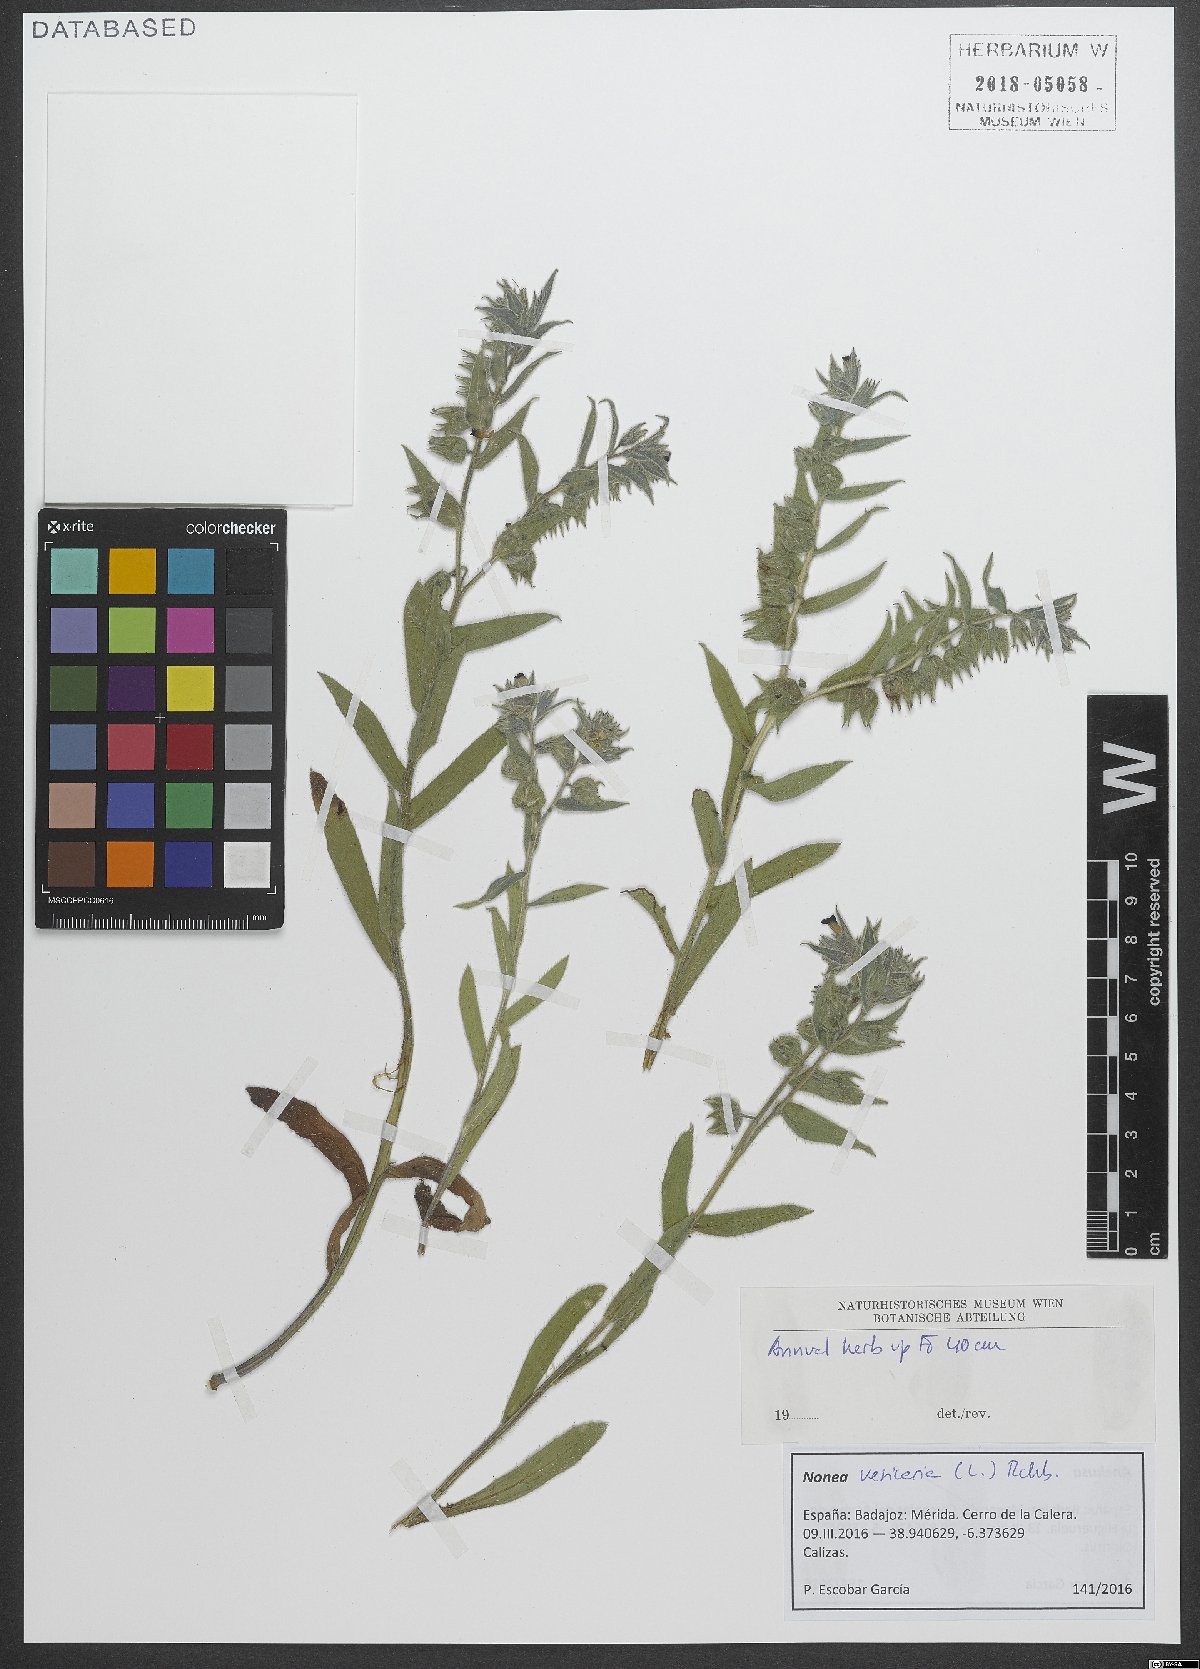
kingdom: Plantae
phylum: Tracheophyta
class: Magnoliopsida
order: Boraginales
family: Boraginaceae
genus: Nonea
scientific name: Nonea vesicaria
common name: Red monkswort
